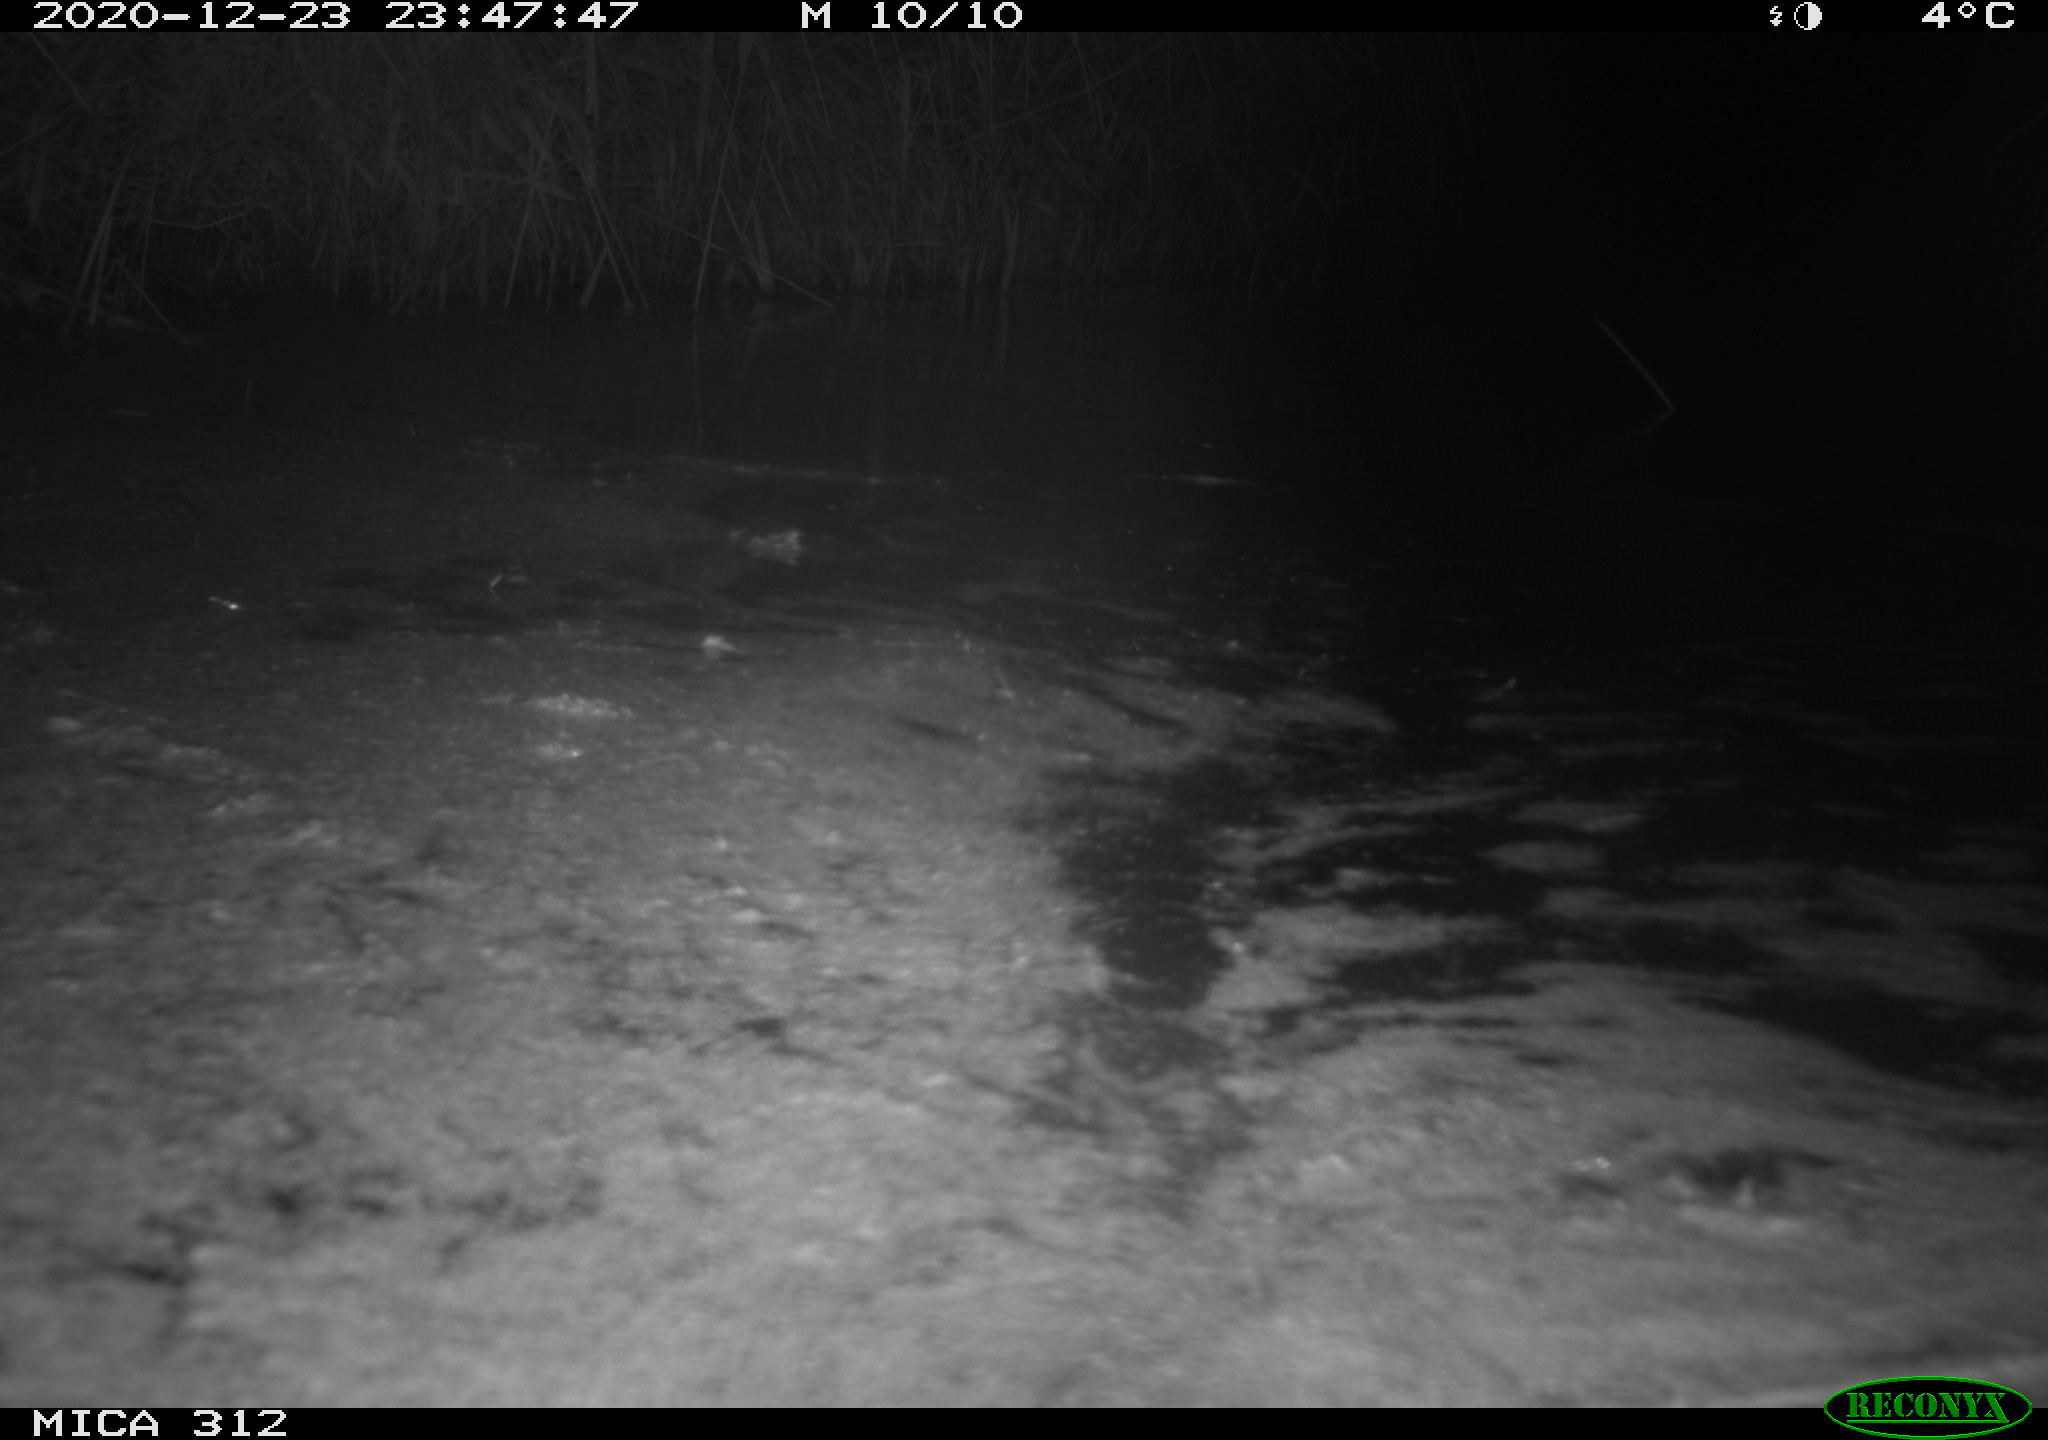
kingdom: Animalia
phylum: Chordata
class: Mammalia
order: Rodentia
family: Muridae
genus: Rattus
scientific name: Rattus norvegicus
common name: Brown rat
